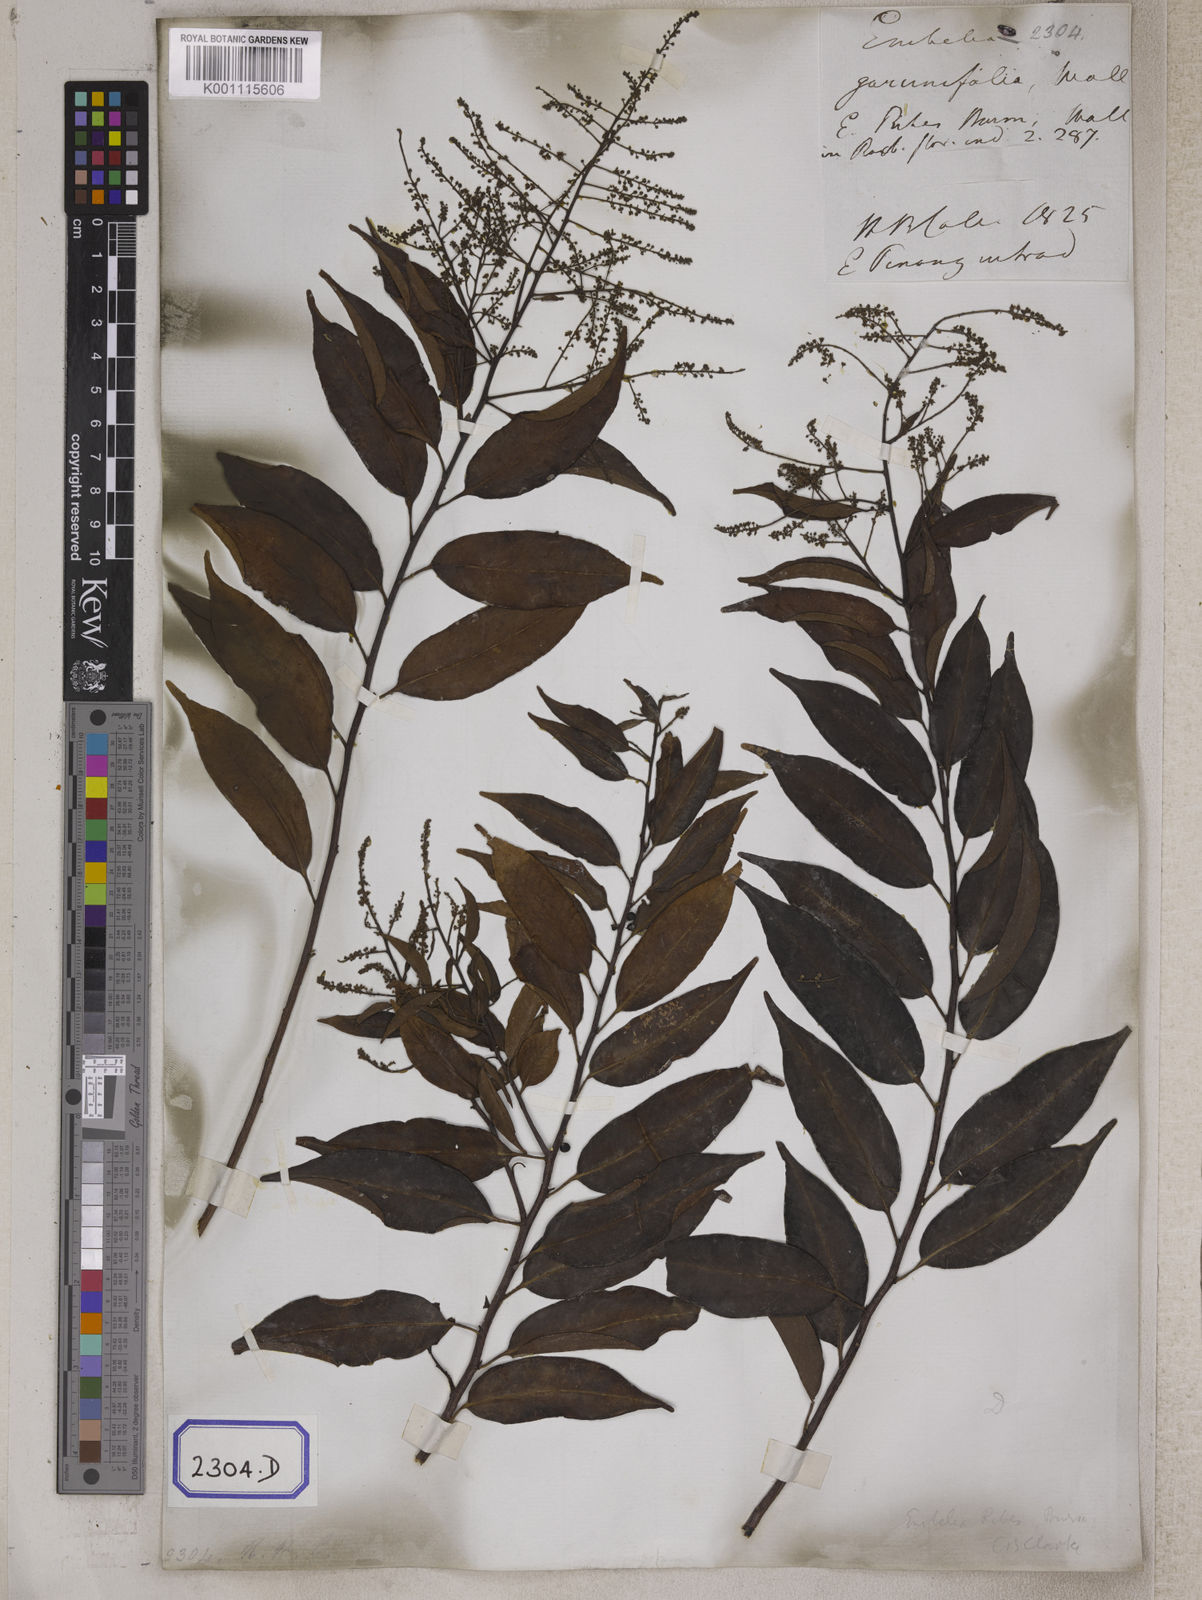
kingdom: Plantae
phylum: Tracheophyta
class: Magnoliopsida
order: Ericales
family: Primulaceae
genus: Embelia
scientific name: Embelia ribes
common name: Vidanga
